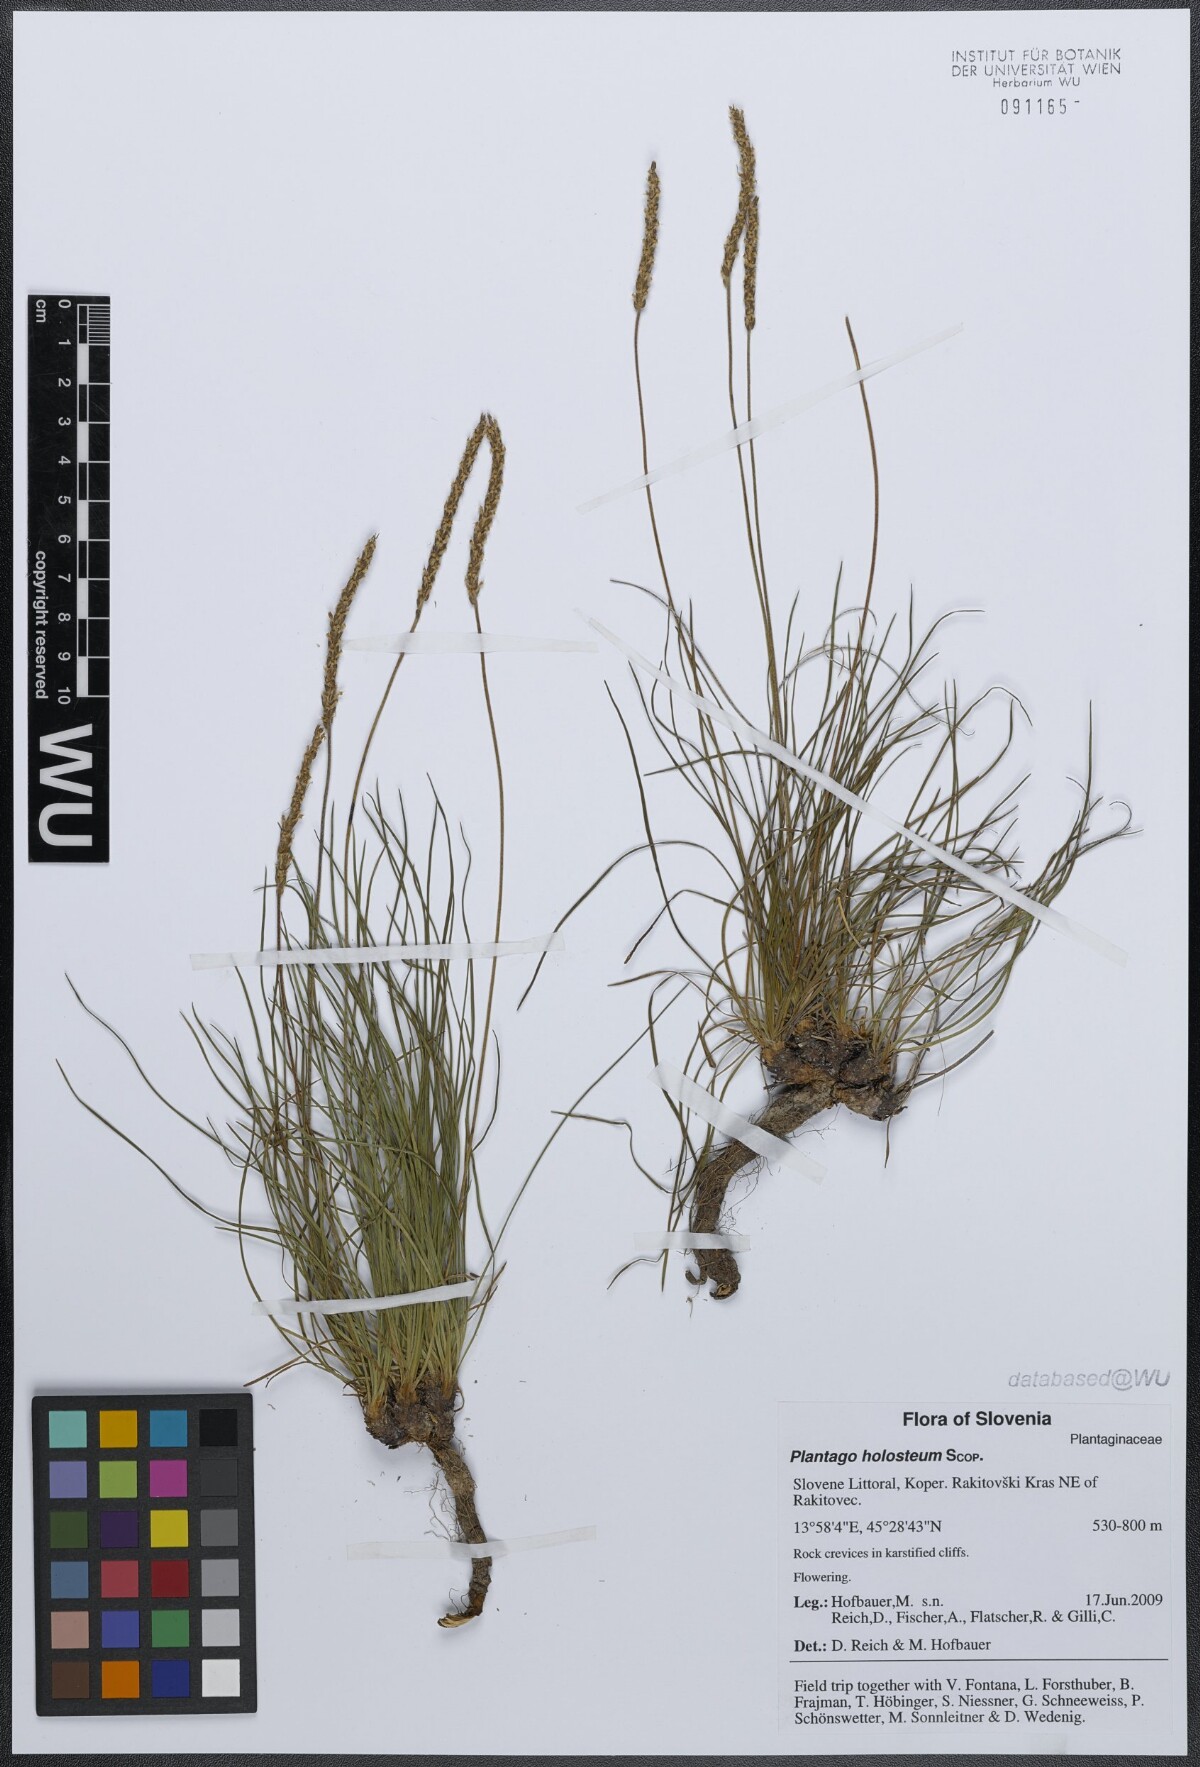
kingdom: Plantae
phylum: Tracheophyta
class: Magnoliopsida
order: Lamiales
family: Plantaginaceae
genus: Plantago
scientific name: Plantago subulata
